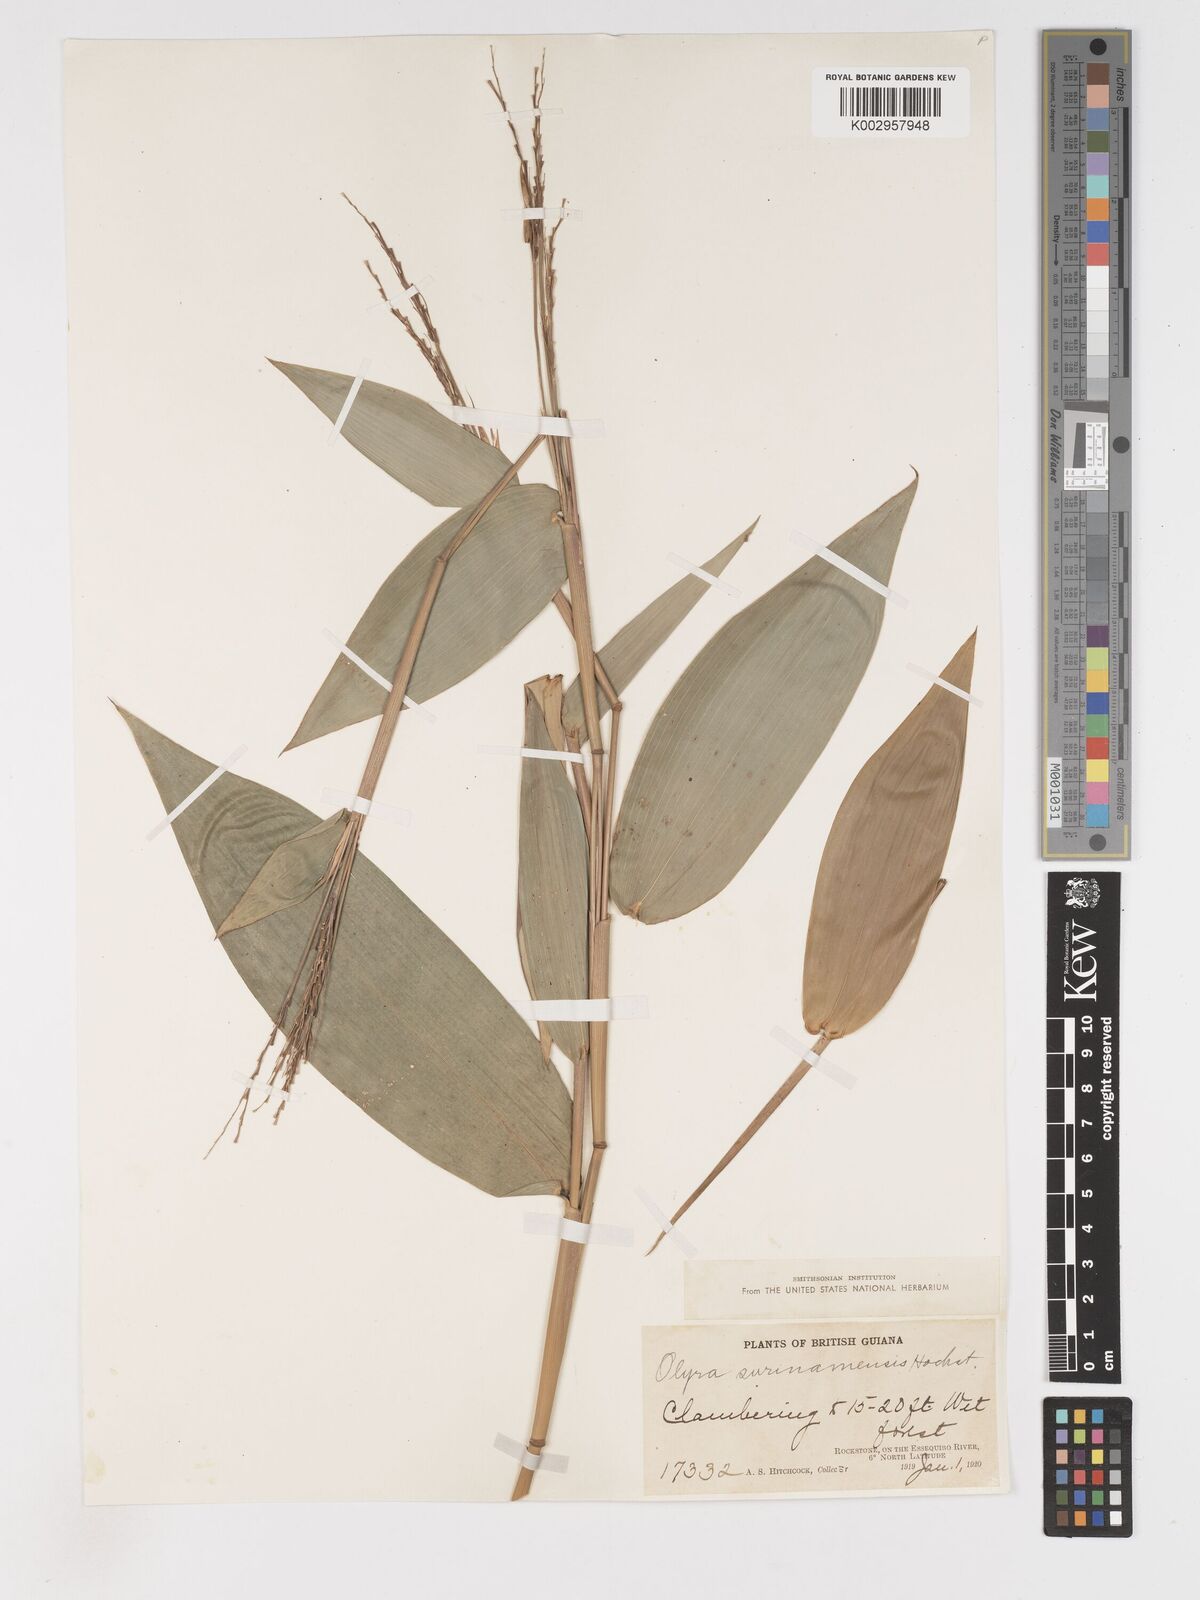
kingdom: Plantae
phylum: Tracheophyta
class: Liliopsida
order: Poales
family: Poaceae
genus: Olyra
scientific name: Olyra longifolia
